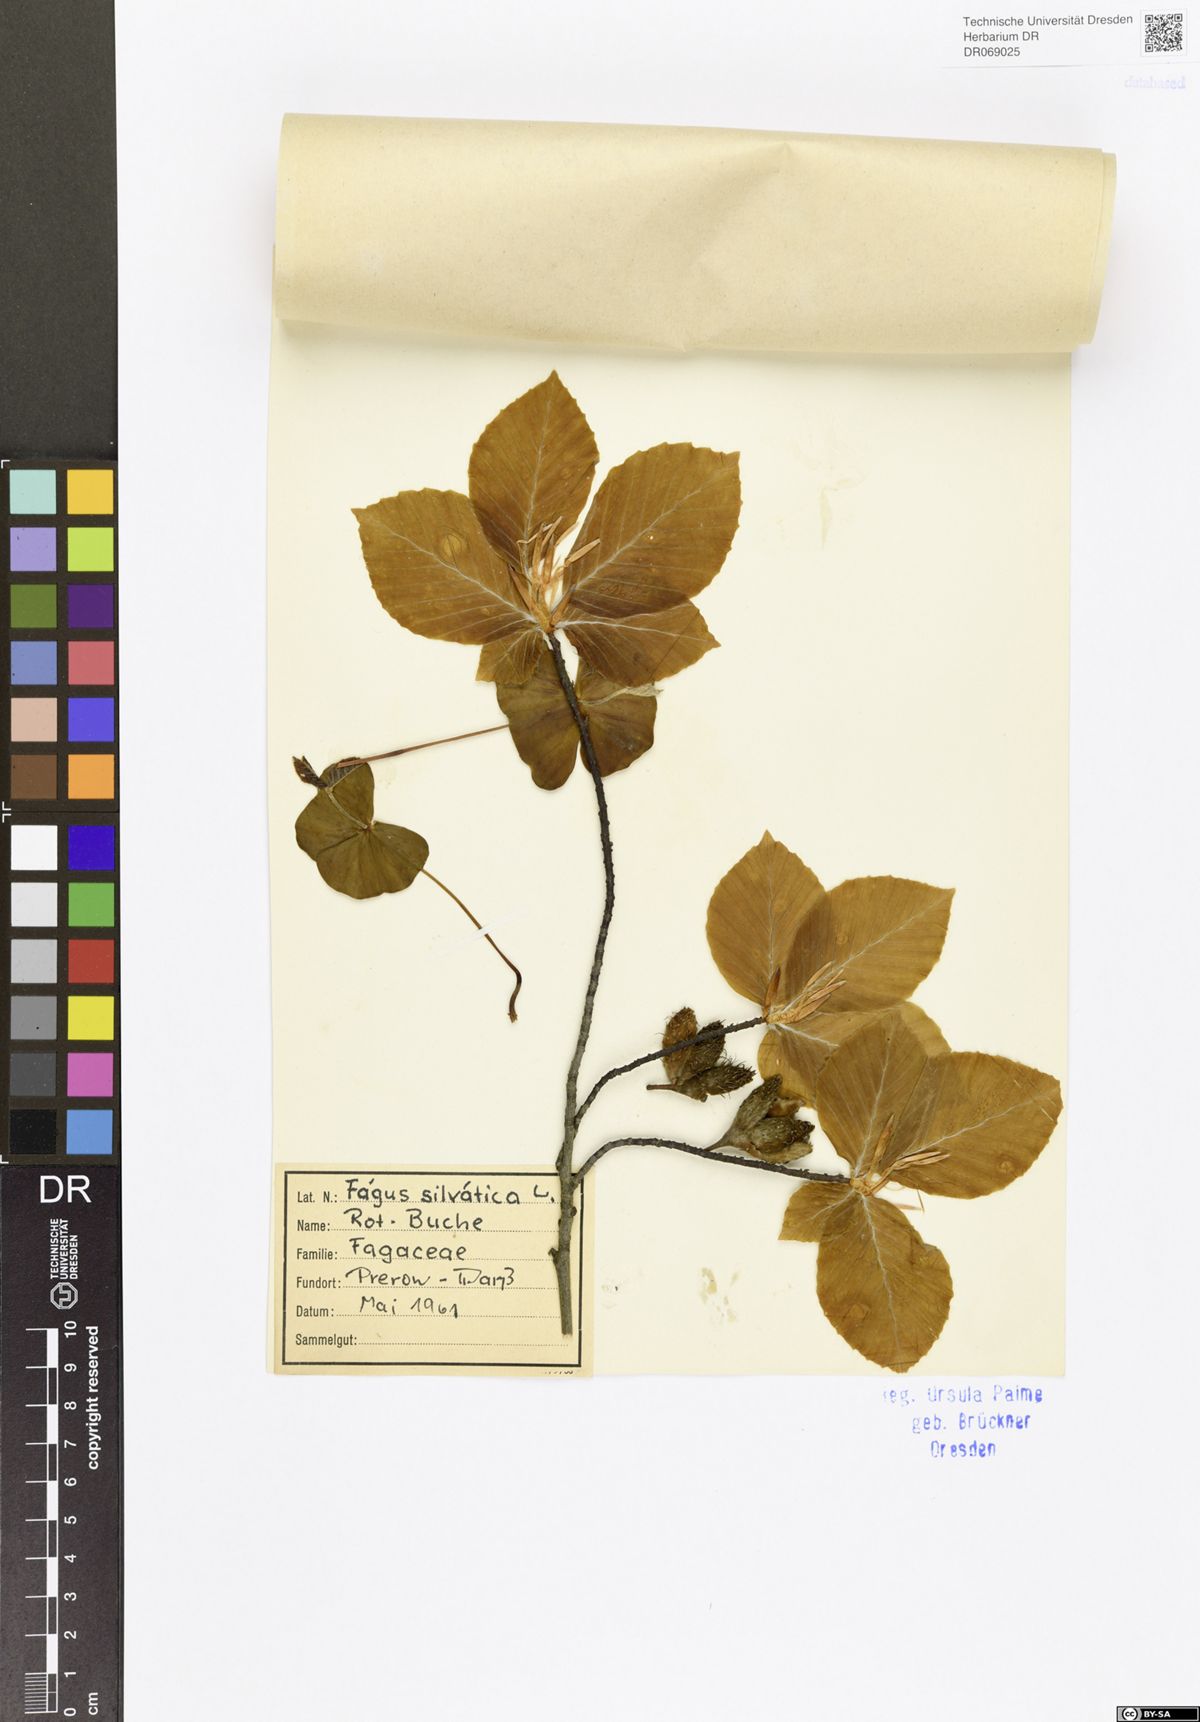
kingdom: Plantae
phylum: Tracheophyta
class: Magnoliopsida
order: Fagales
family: Fagaceae
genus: Fagus
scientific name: Fagus
